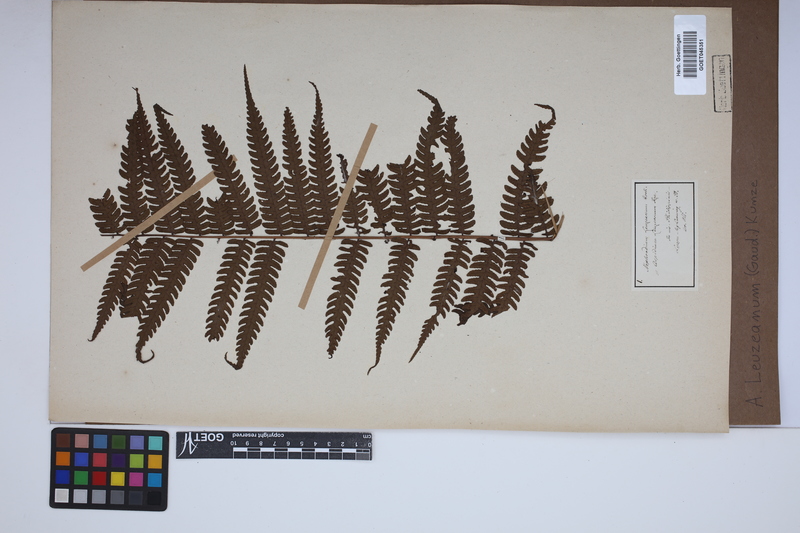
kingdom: Plantae
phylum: Tracheophyta
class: Polypodiopsida
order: Polypodiales
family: Dryopteridaceae
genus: Pleocnemia
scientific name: Pleocnemia leuzeana
